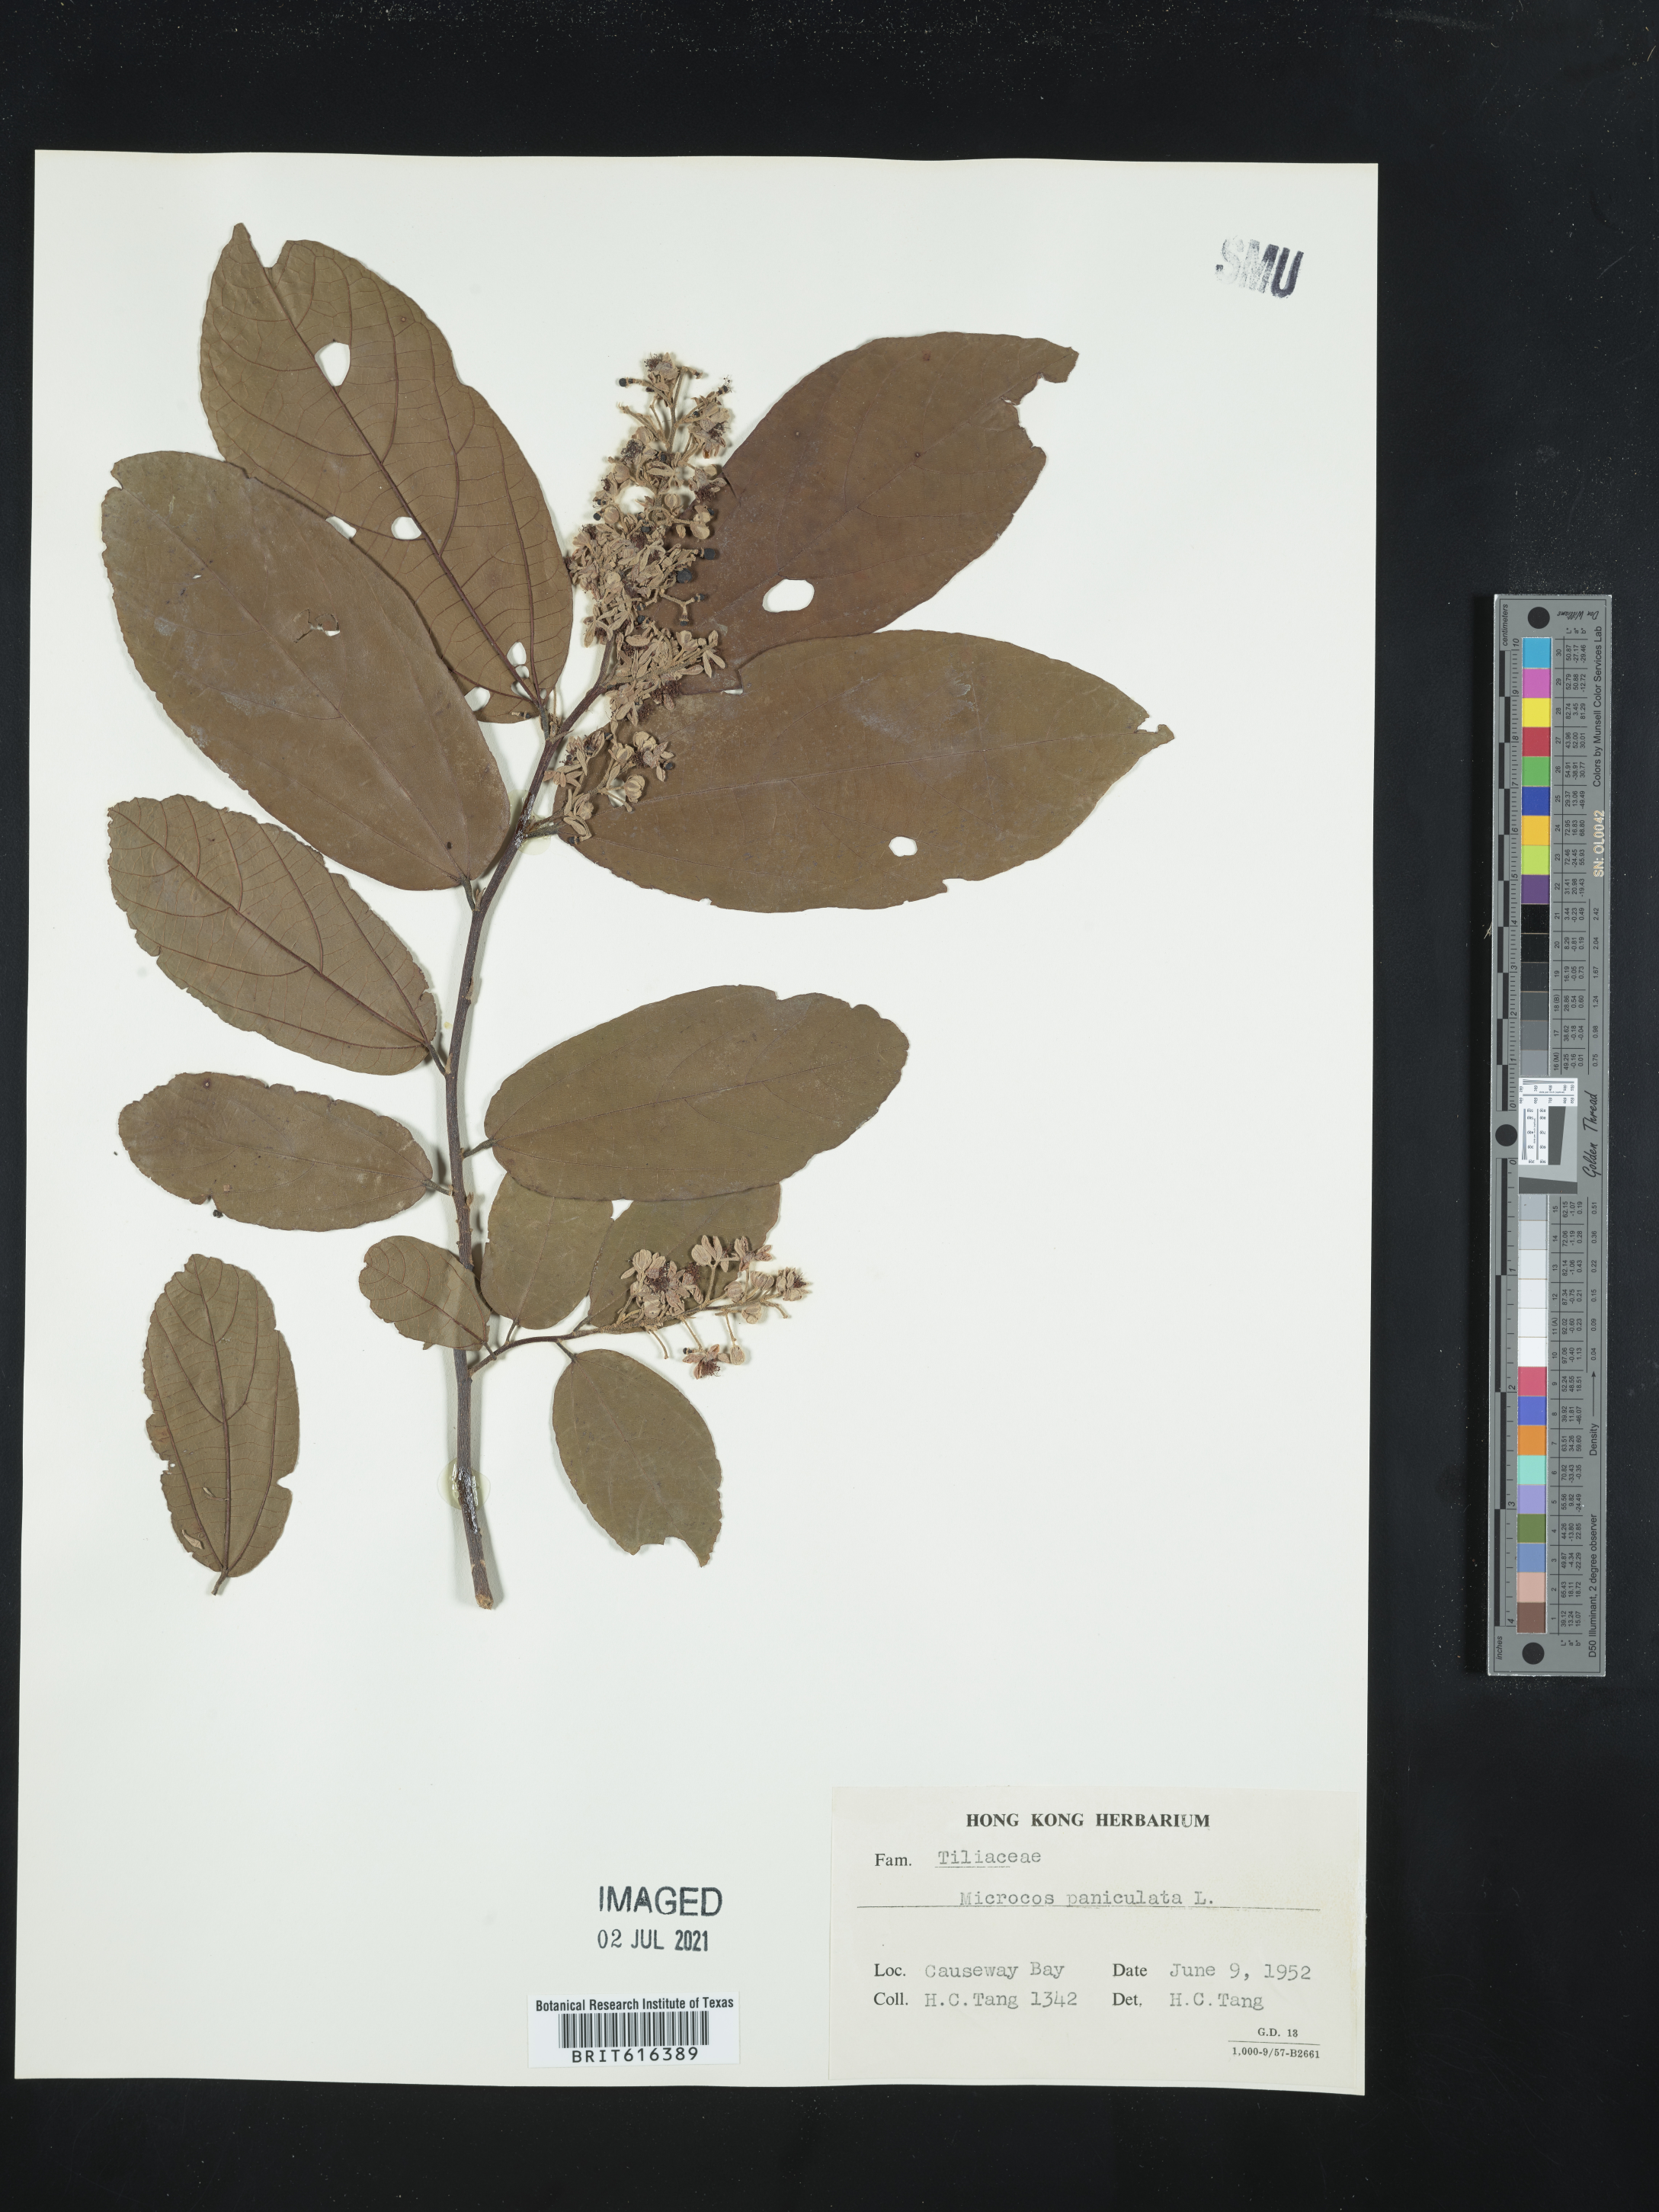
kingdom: Plantae
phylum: Tracheophyta
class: Magnoliopsida
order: Malvales
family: Malvaceae
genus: Microcos
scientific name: Microcos paniculata
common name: Microcos
